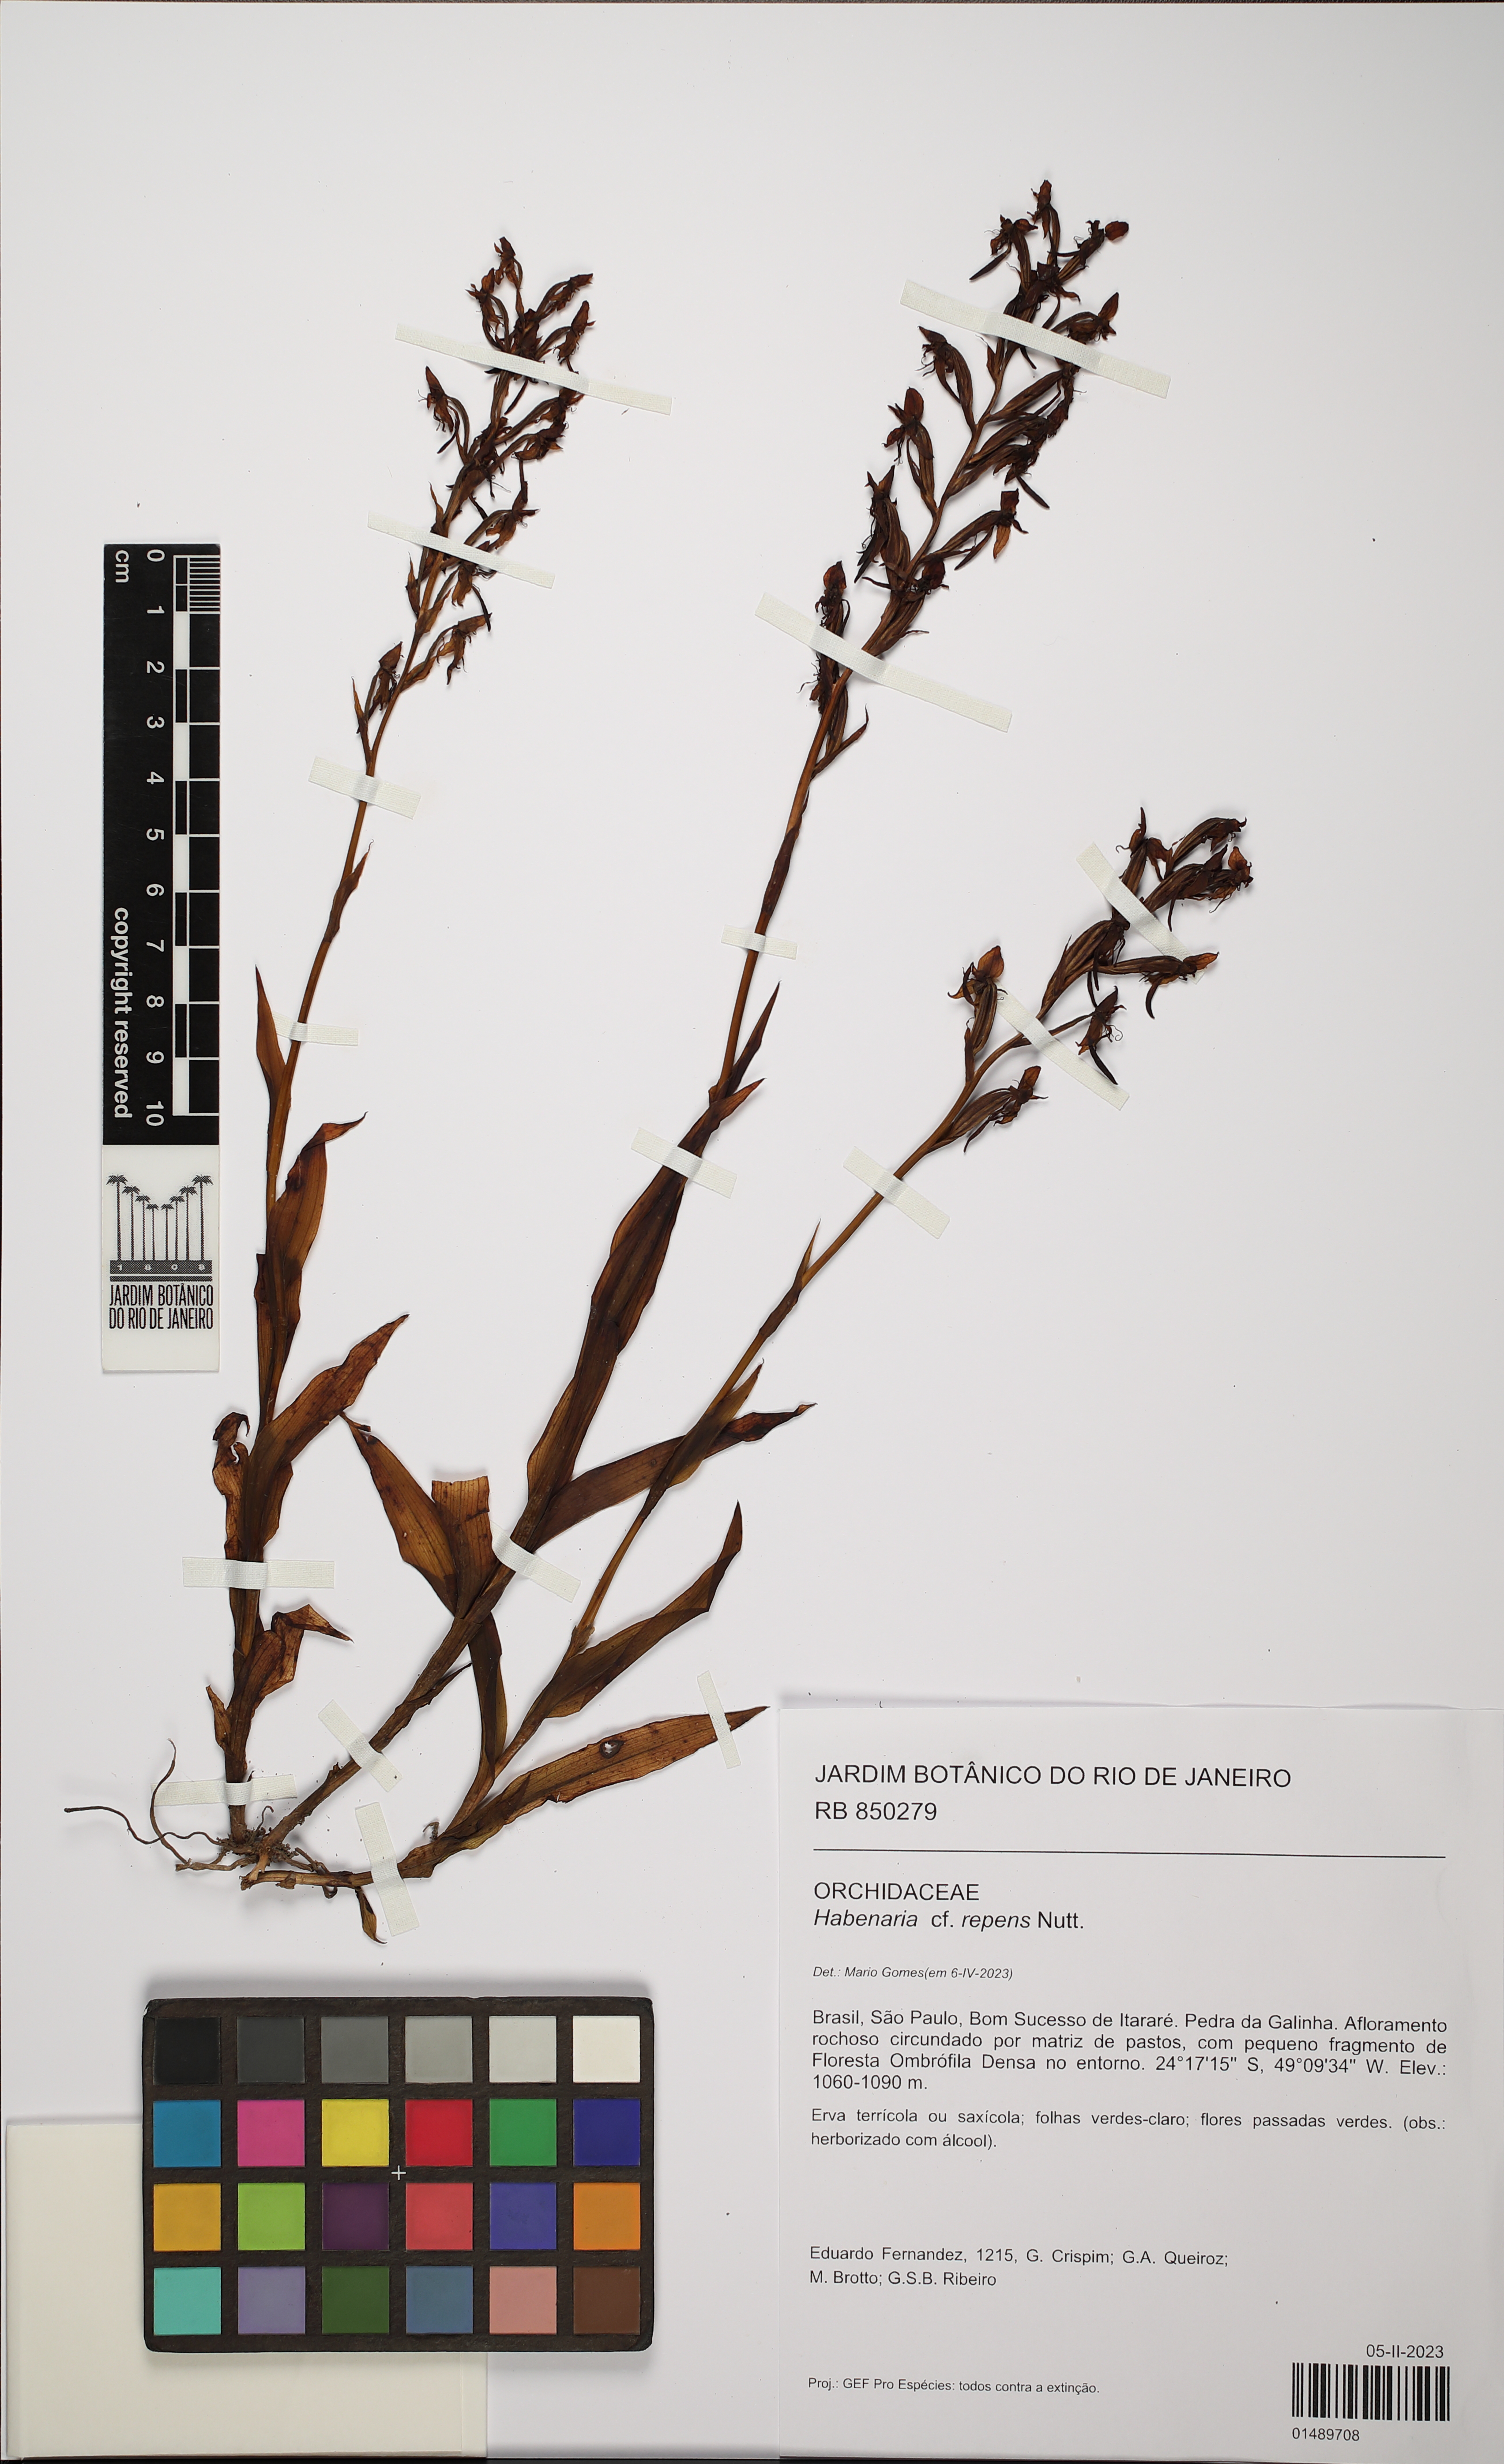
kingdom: Plantae
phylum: Tracheophyta
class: Liliopsida
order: Asparagales
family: Orchidaceae
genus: Habenaria
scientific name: Habenaria repens
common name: Water orchid
